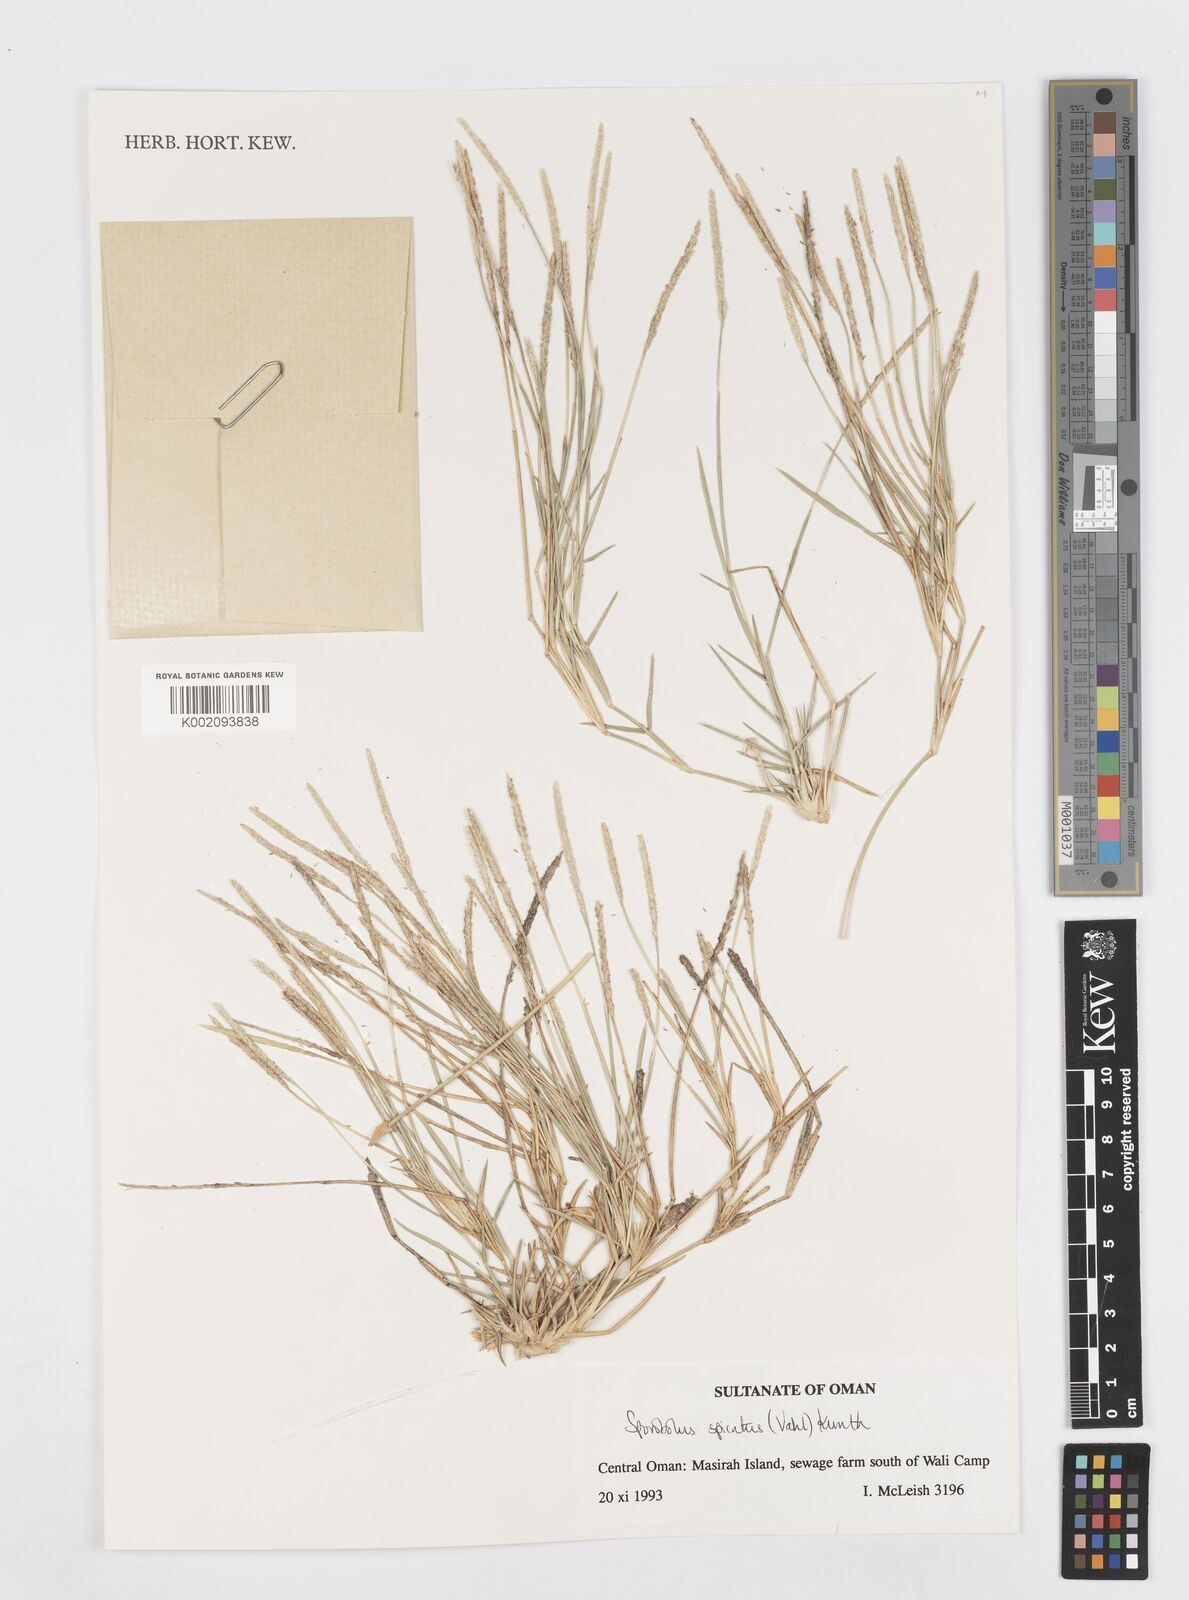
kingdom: Plantae
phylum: Tracheophyta
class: Liliopsida
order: Poales
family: Poaceae
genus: Sporobolus
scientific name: Sporobolus spicatus
